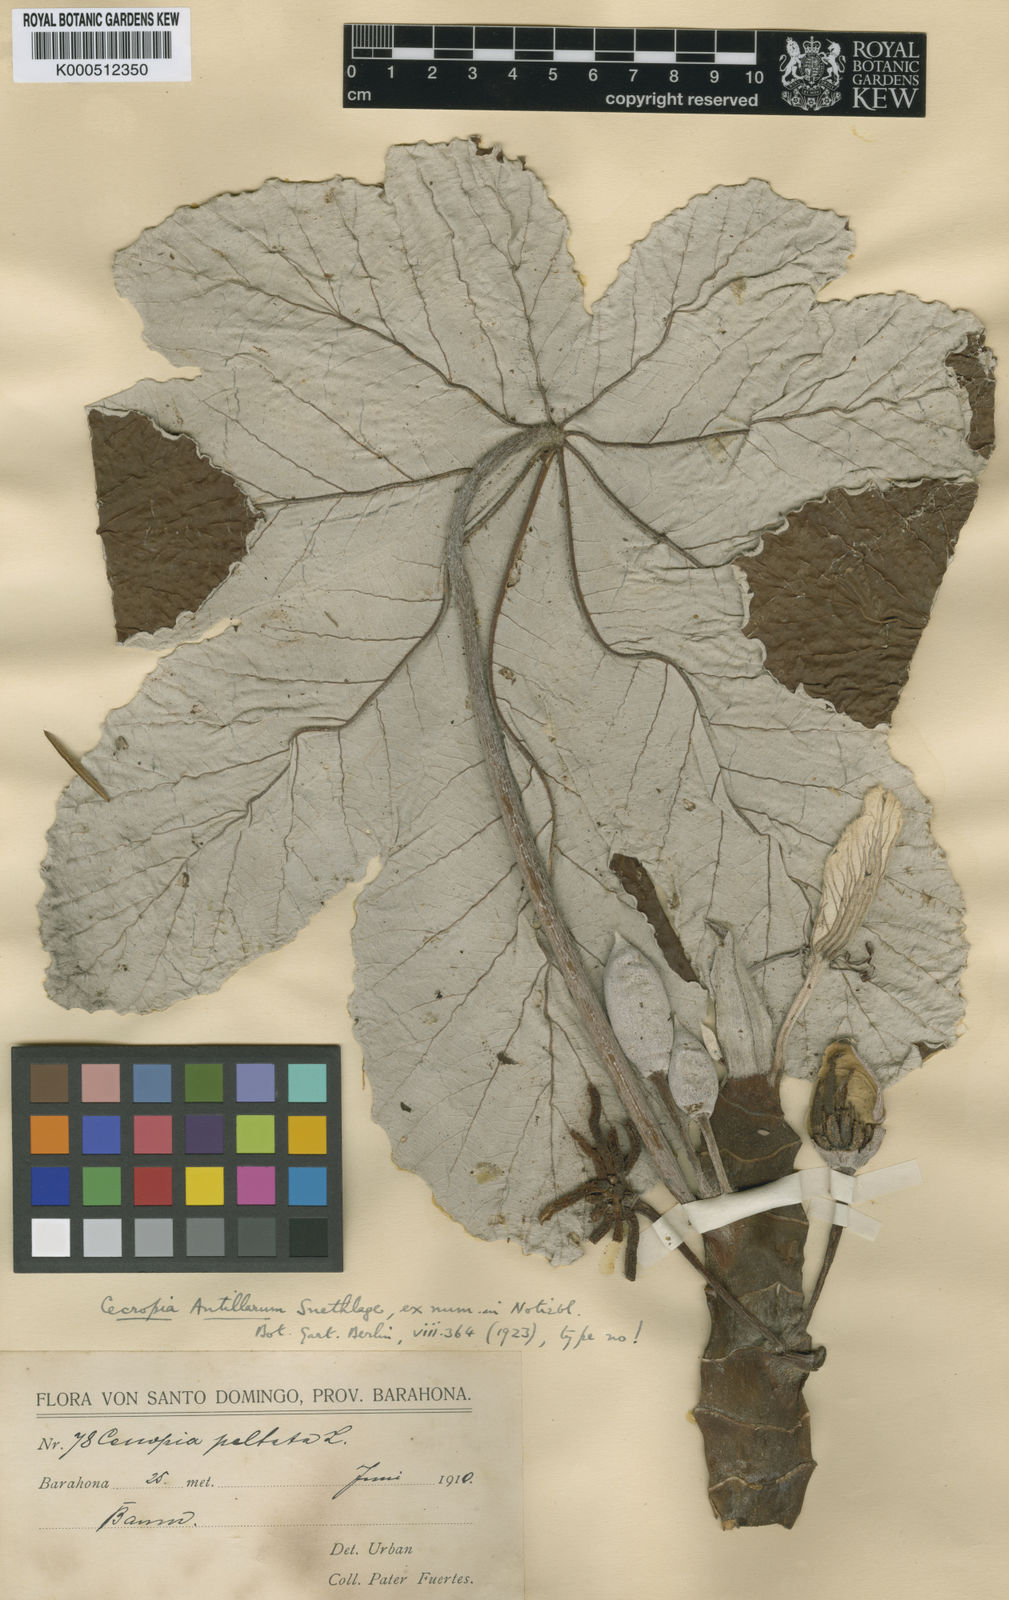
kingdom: Plantae
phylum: Tracheophyta
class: Magnoliopsida
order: Rosales
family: Urticaceae
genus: Cecropia
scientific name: Cecropia schreberiana
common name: Trumpet tree
